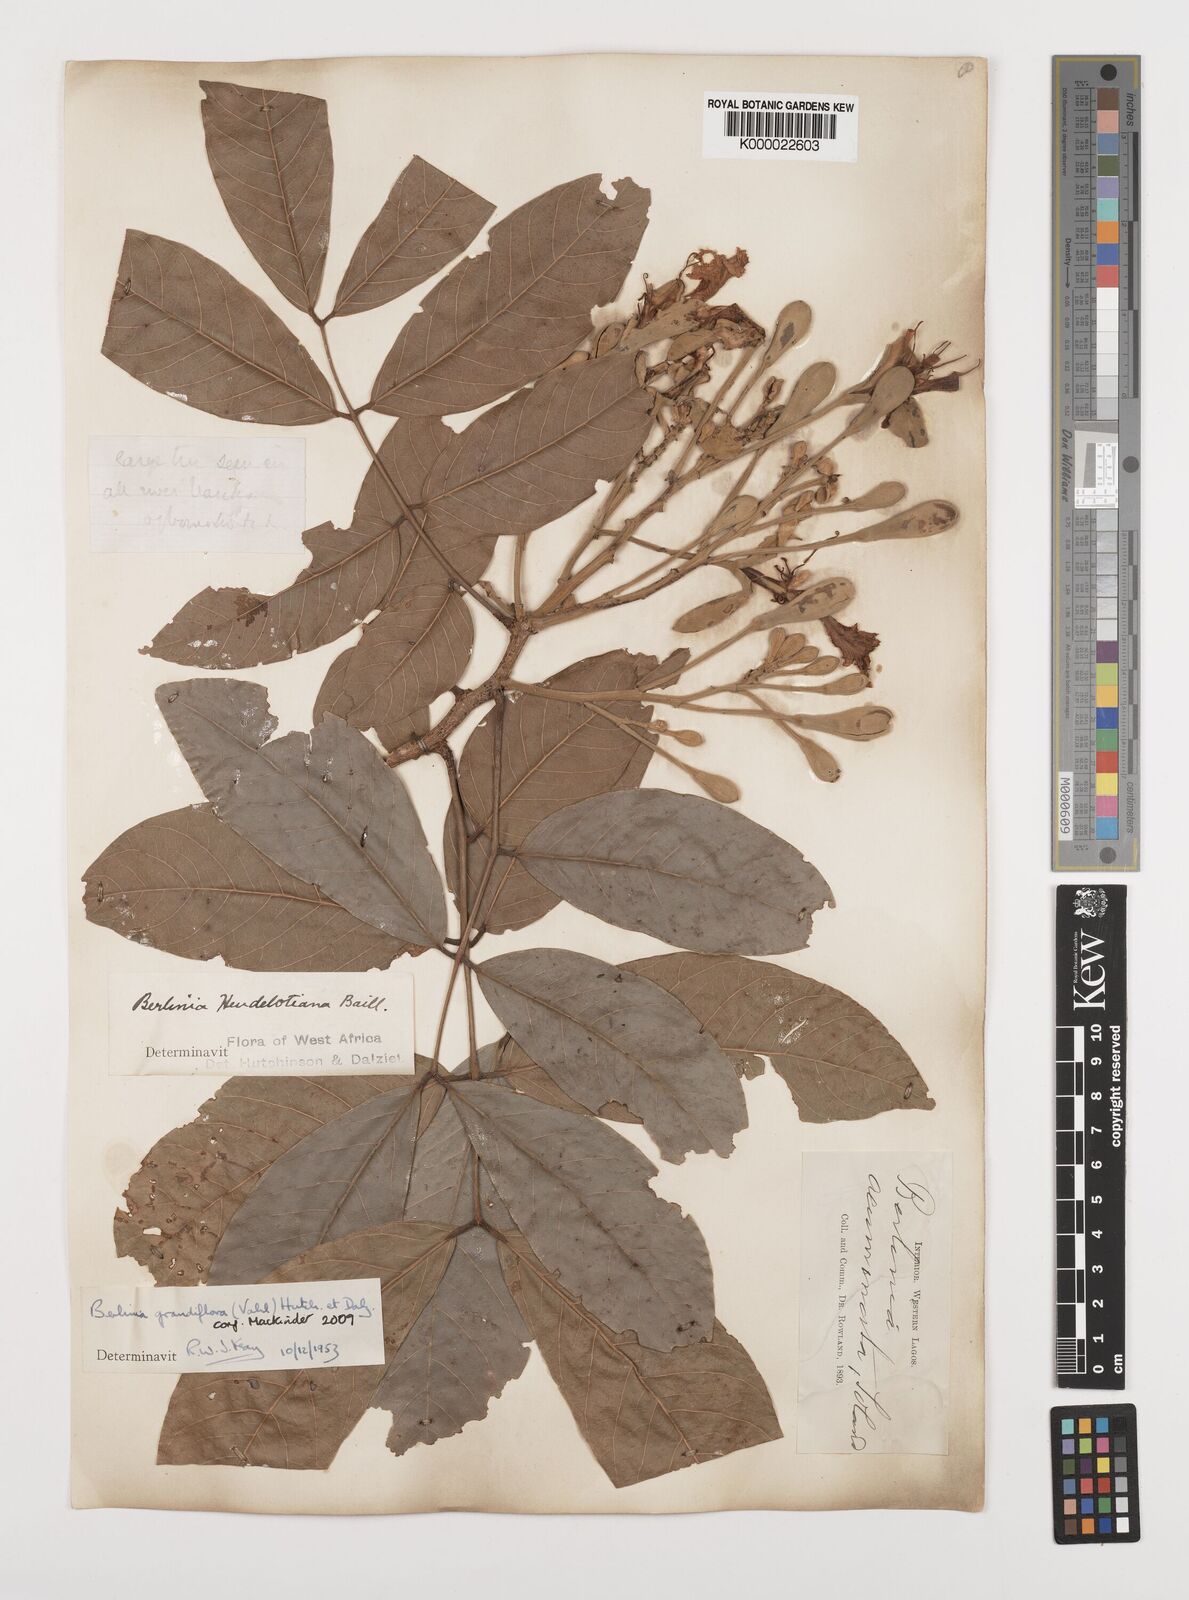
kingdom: Plantae
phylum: Tracheophyta
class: Magnoliopsida
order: Fabales
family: Fabaceae
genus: Berlinia
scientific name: Berlinia grandiflora
